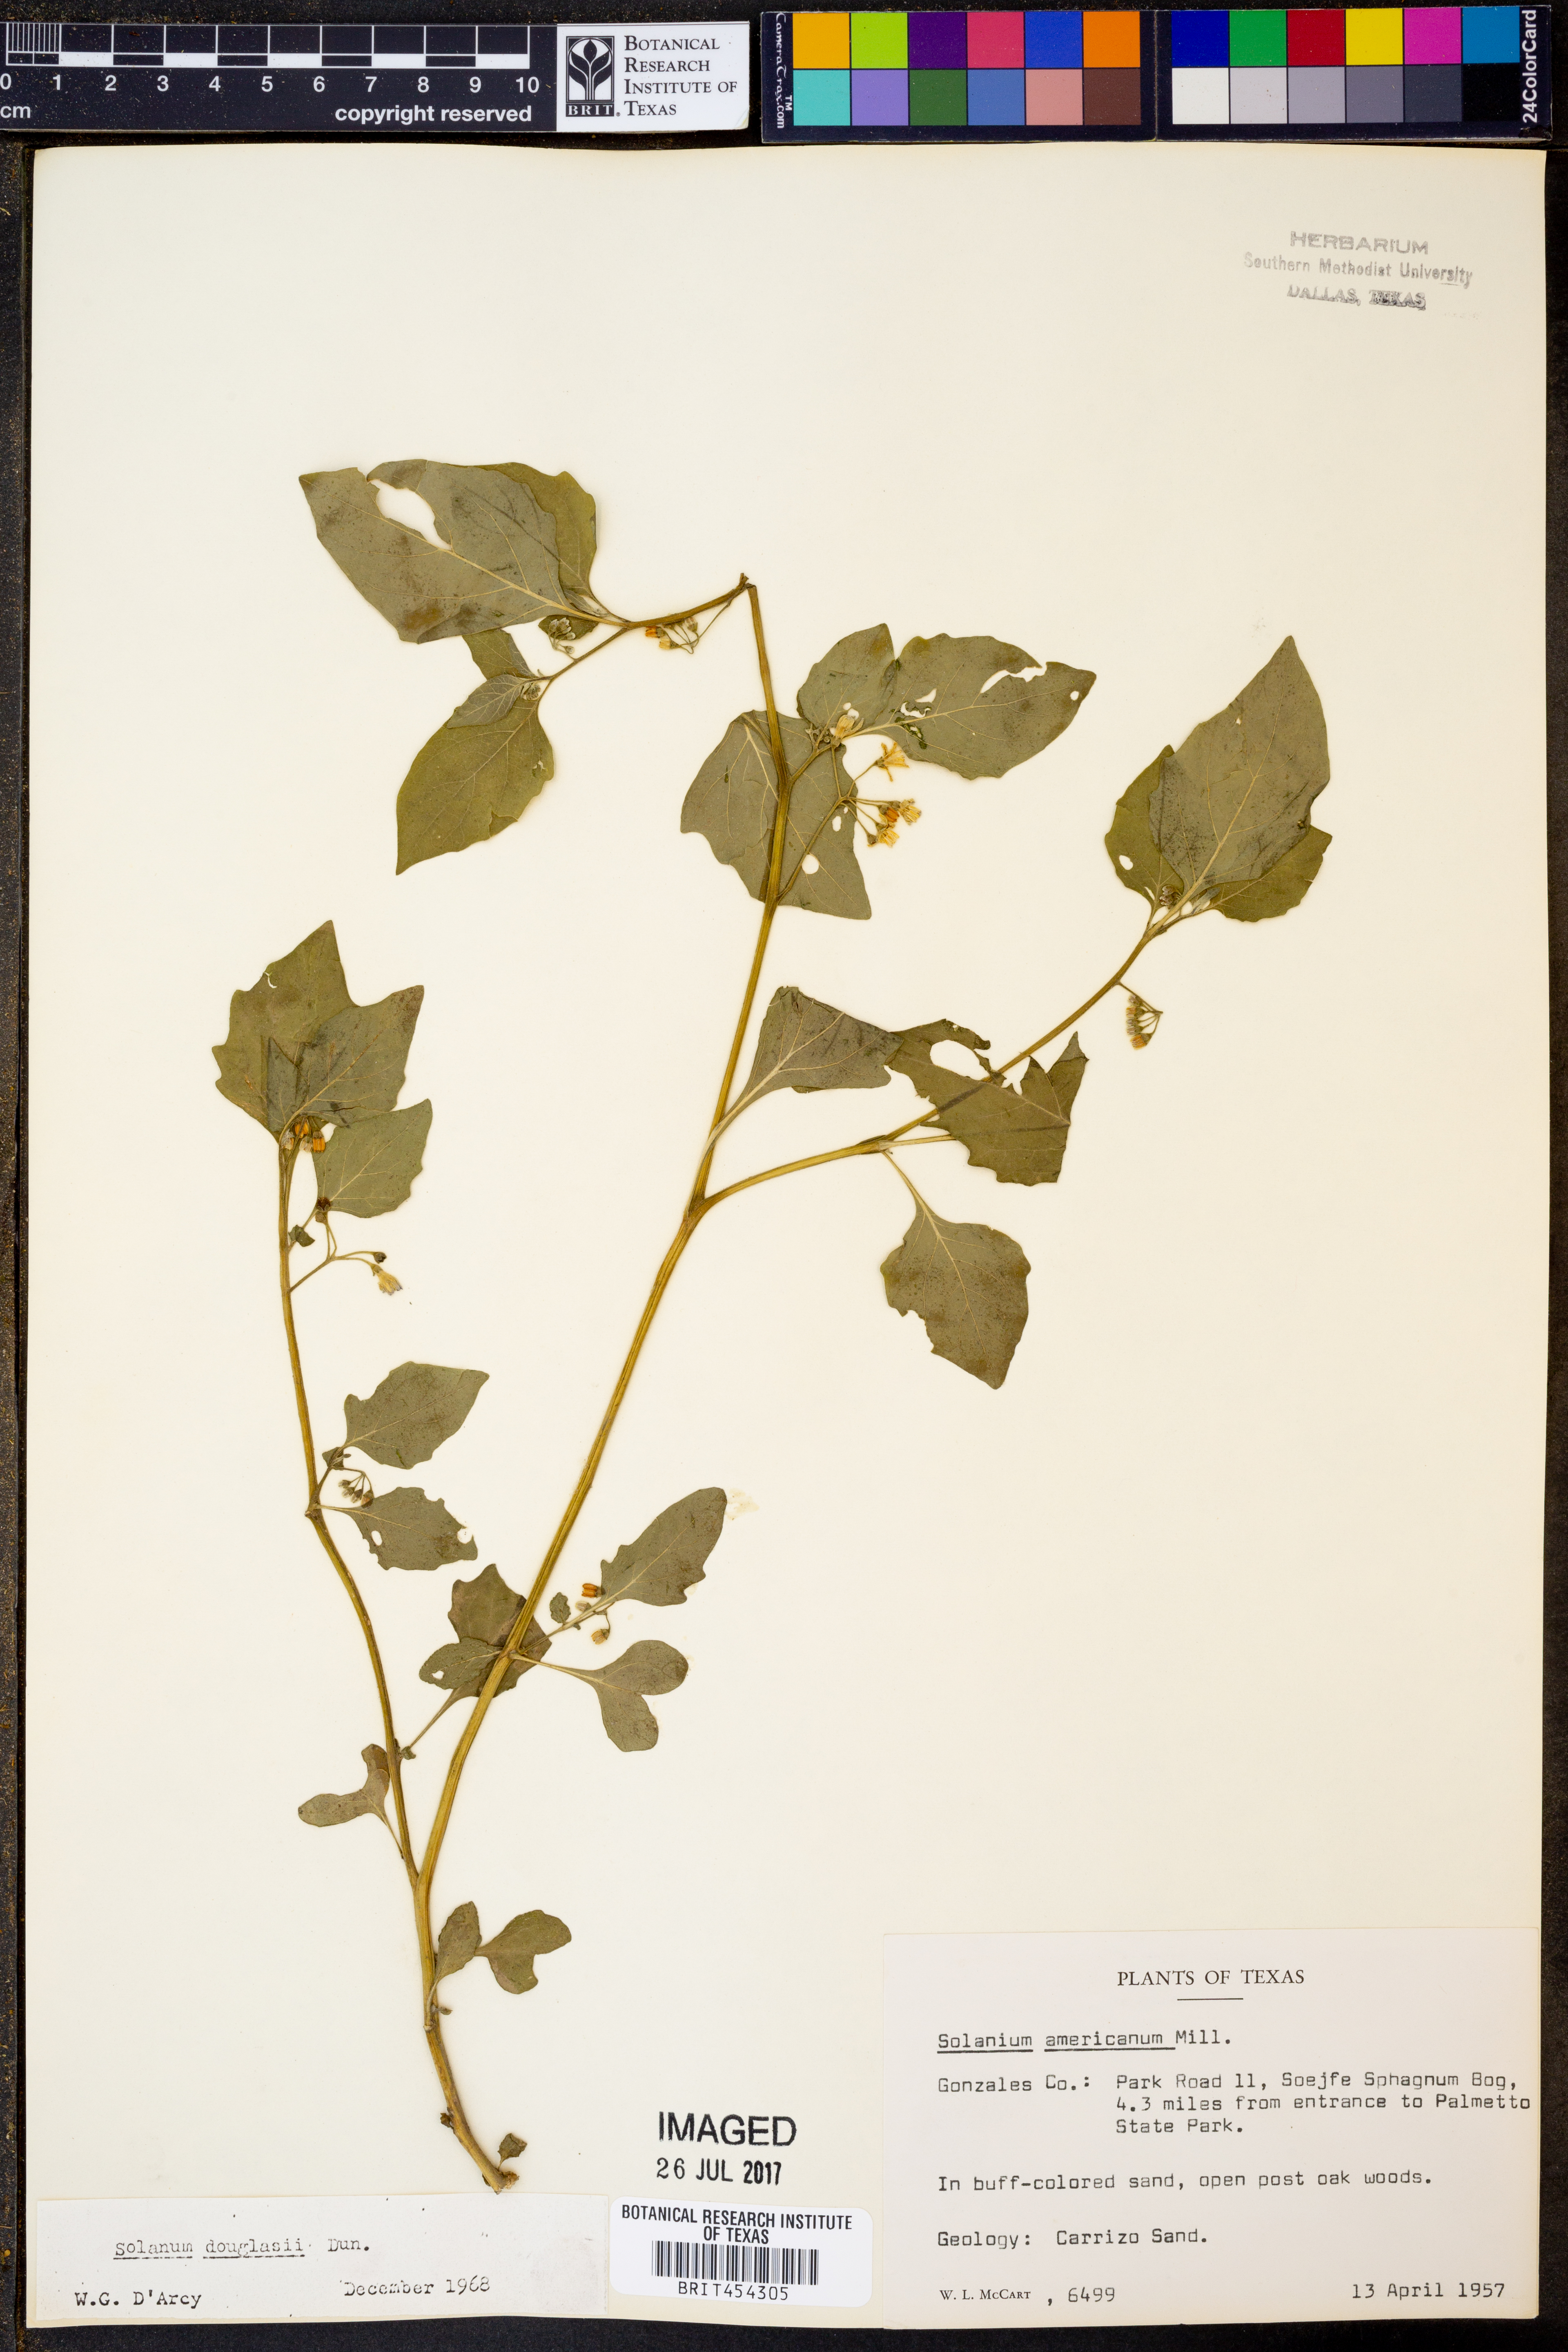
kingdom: Plantae
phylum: Tracheophyta
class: Magnoliopsida
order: Solanales
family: Solanaceae
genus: Solanum
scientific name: Solanum americanum
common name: American black nightshade
